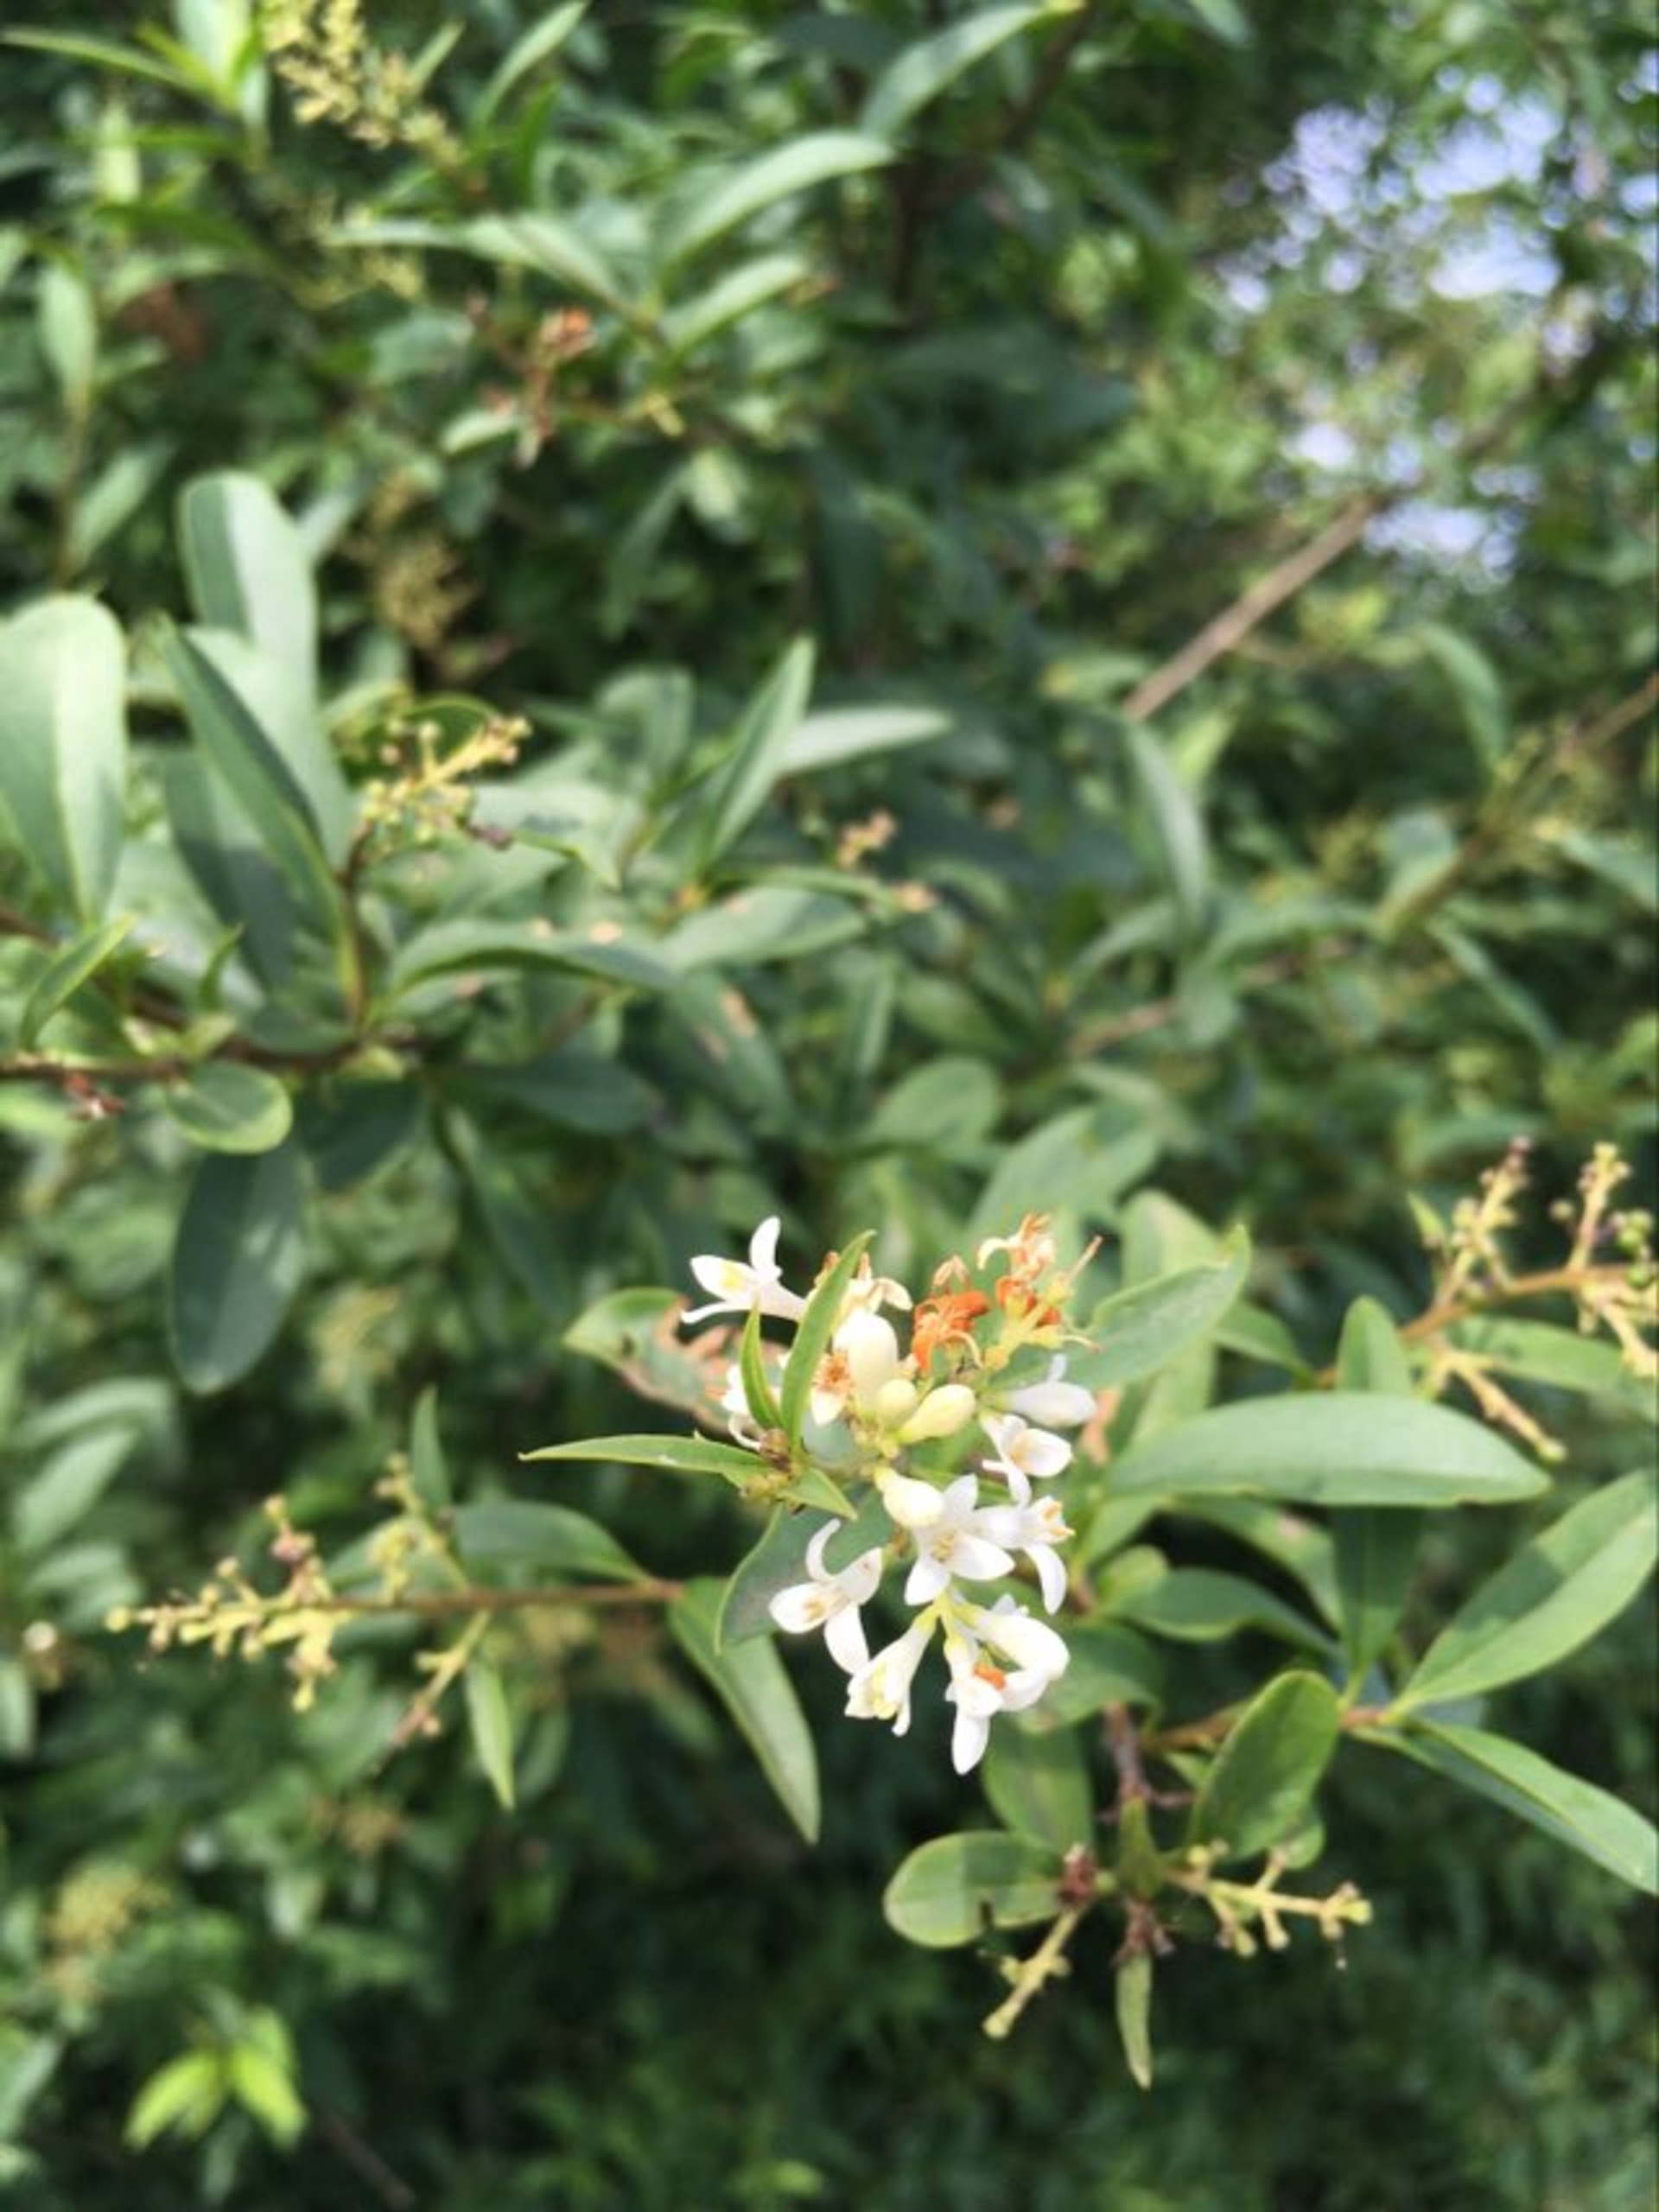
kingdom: Plantae
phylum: Tracheophyta
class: Magnoliopsida
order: Lamiales
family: Oleaceae
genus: Ligustrum
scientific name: Ligustrum vulgare
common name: Liguster
